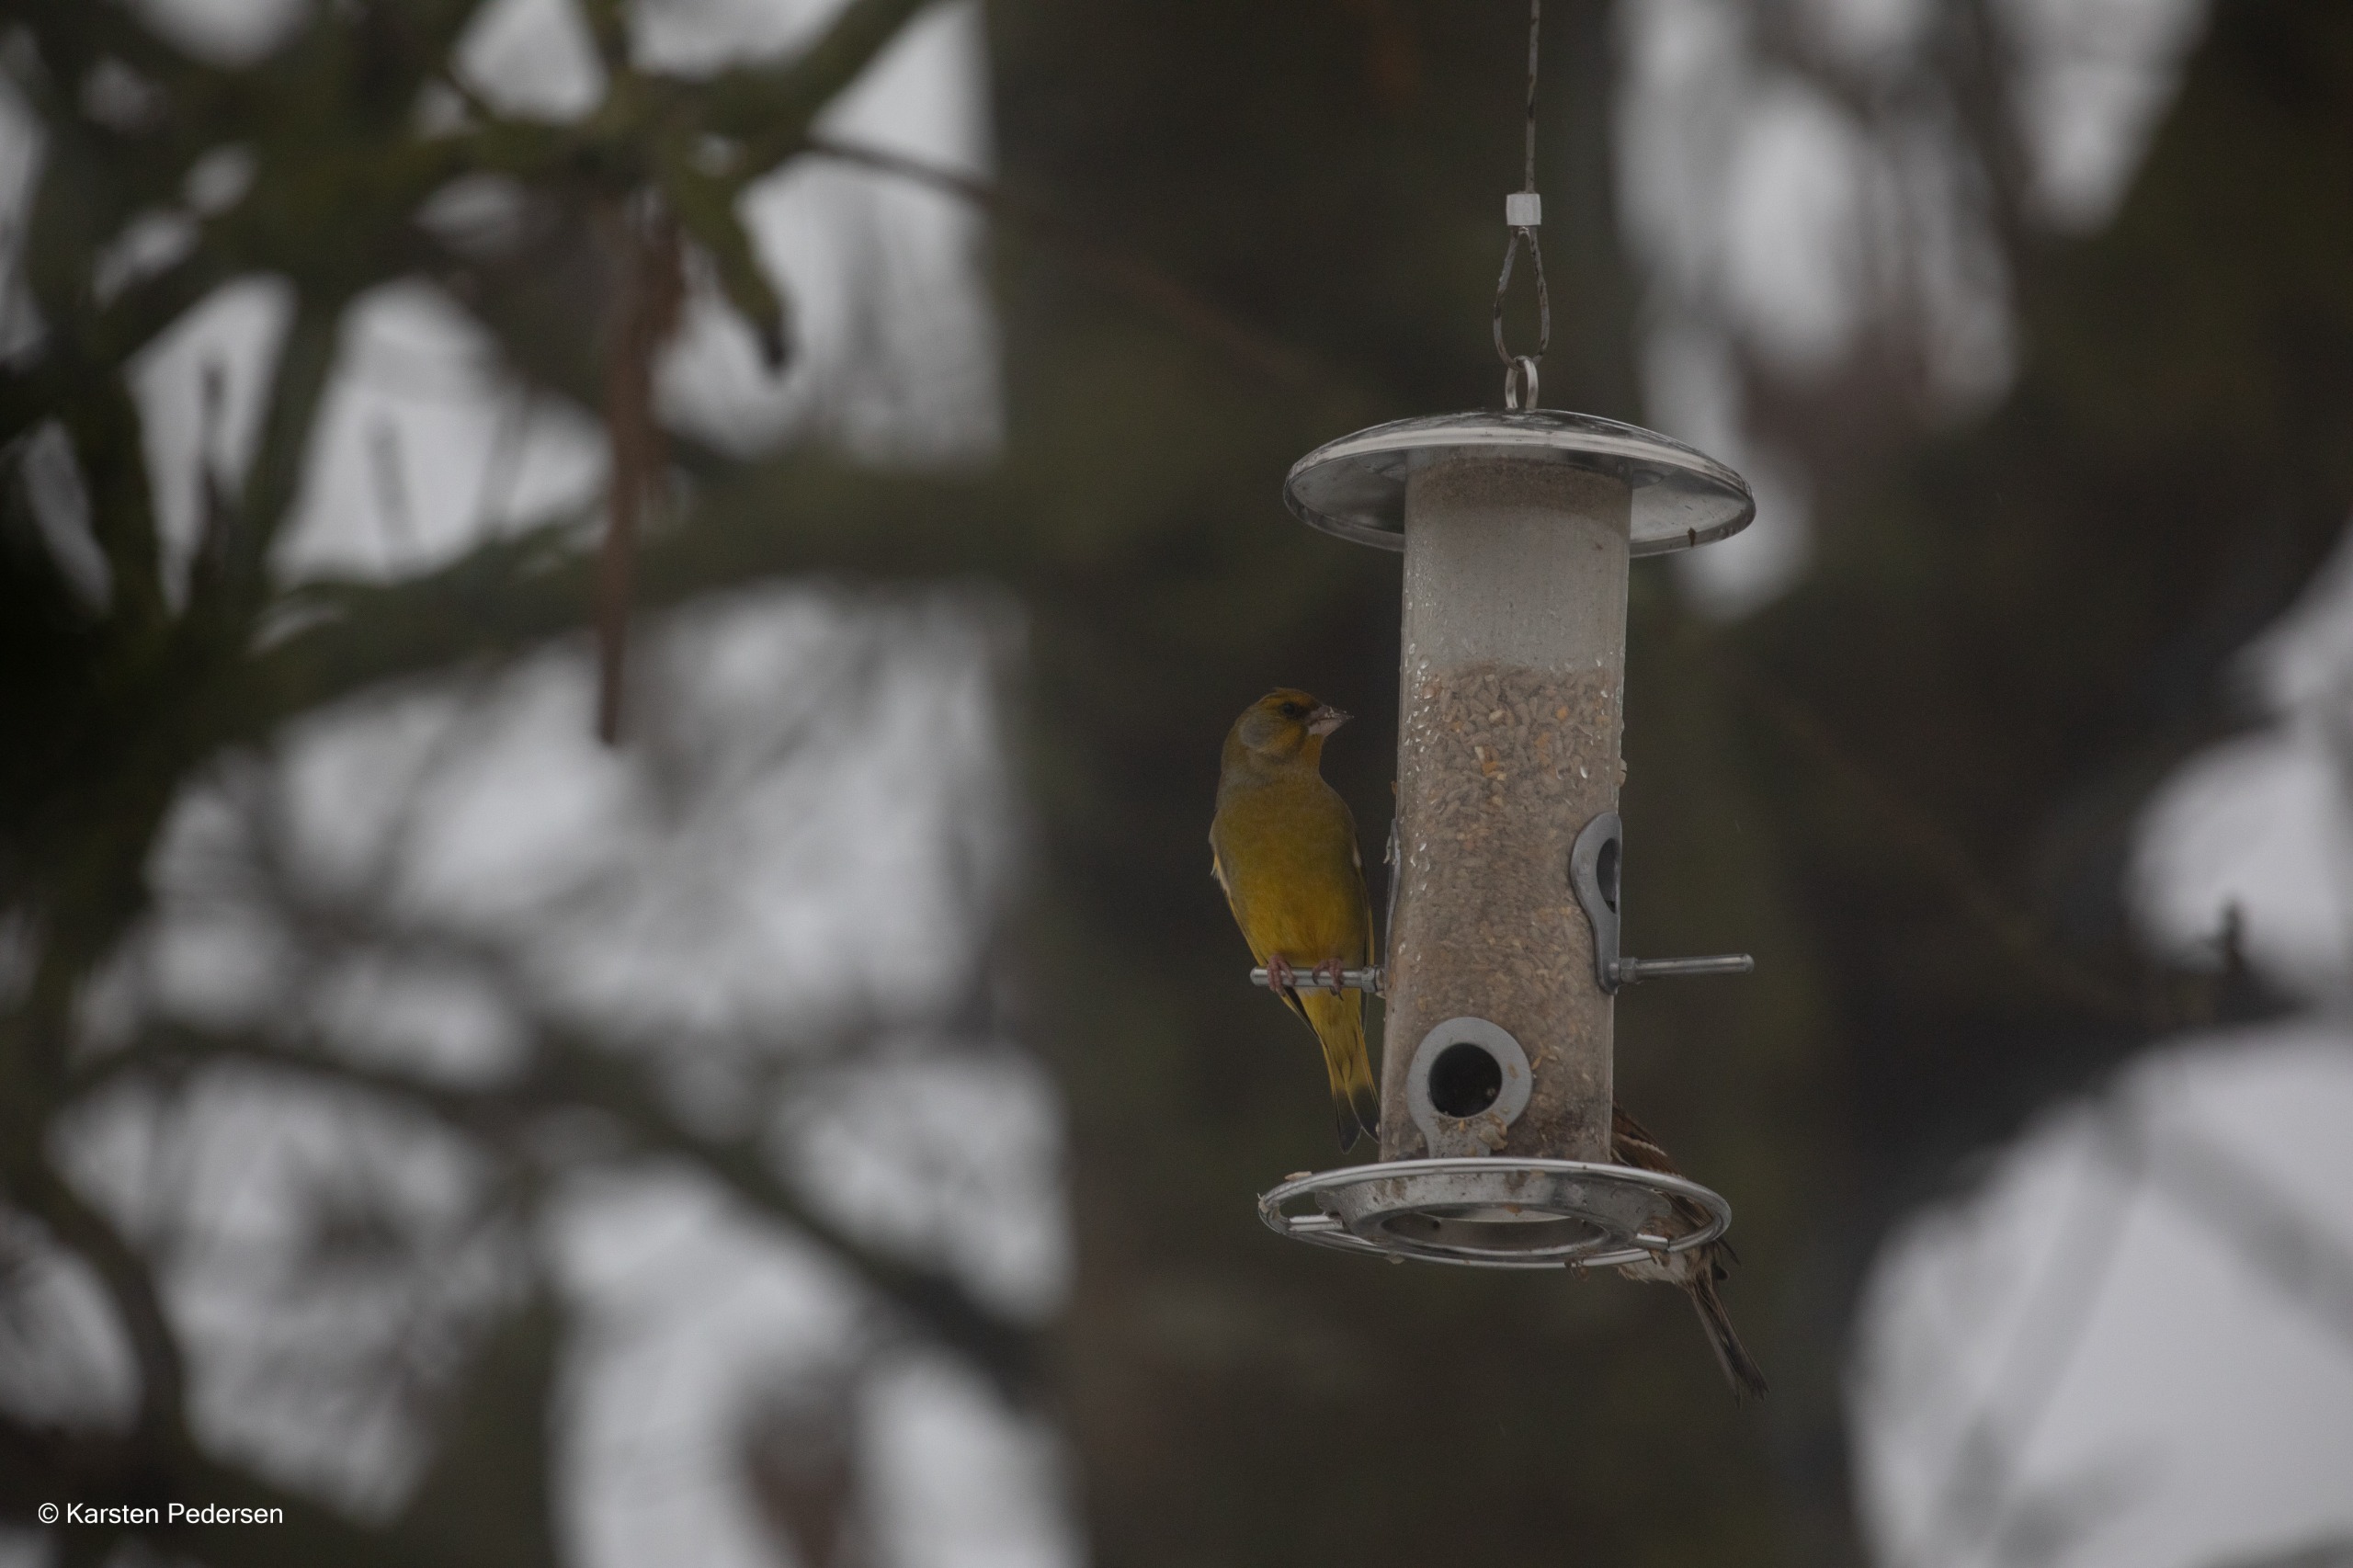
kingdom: Plantae
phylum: Tracheophyta
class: Liliopsida
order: Poales
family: Poaceae
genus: Chloris
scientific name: Chloris chloris
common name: Grønirisk
